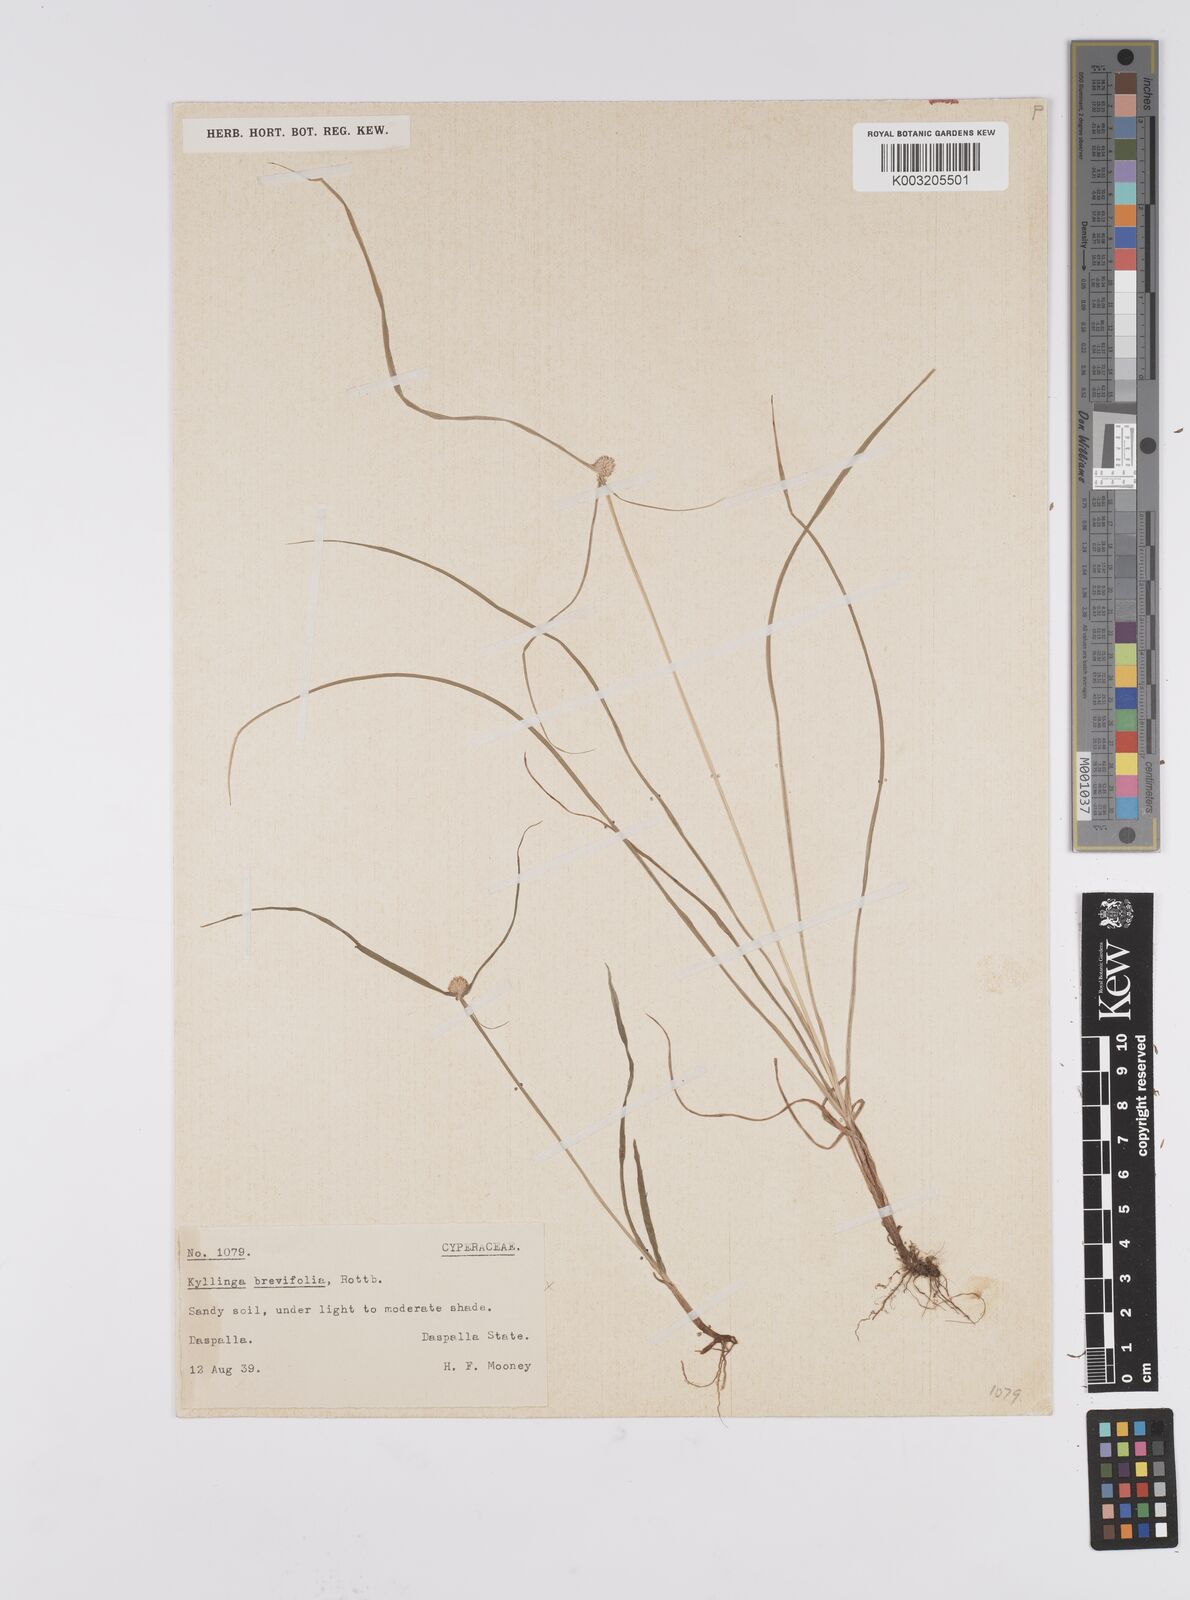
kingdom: Plantae
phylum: Tracheophyta
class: Liliopsida
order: Poales
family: Cyperaceae
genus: Cyperus
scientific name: Cyperus nemoralis
